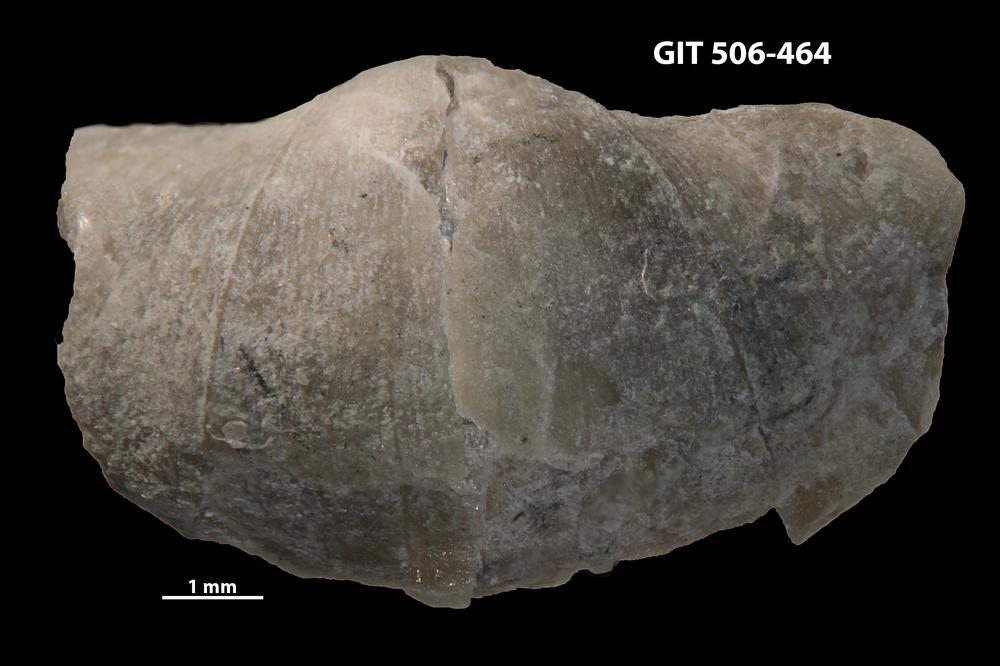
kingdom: Animalia
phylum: Brachiopoda
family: Oldhaminidae
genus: Eoplectodonta
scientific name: Eoplectodonta penkillensis
